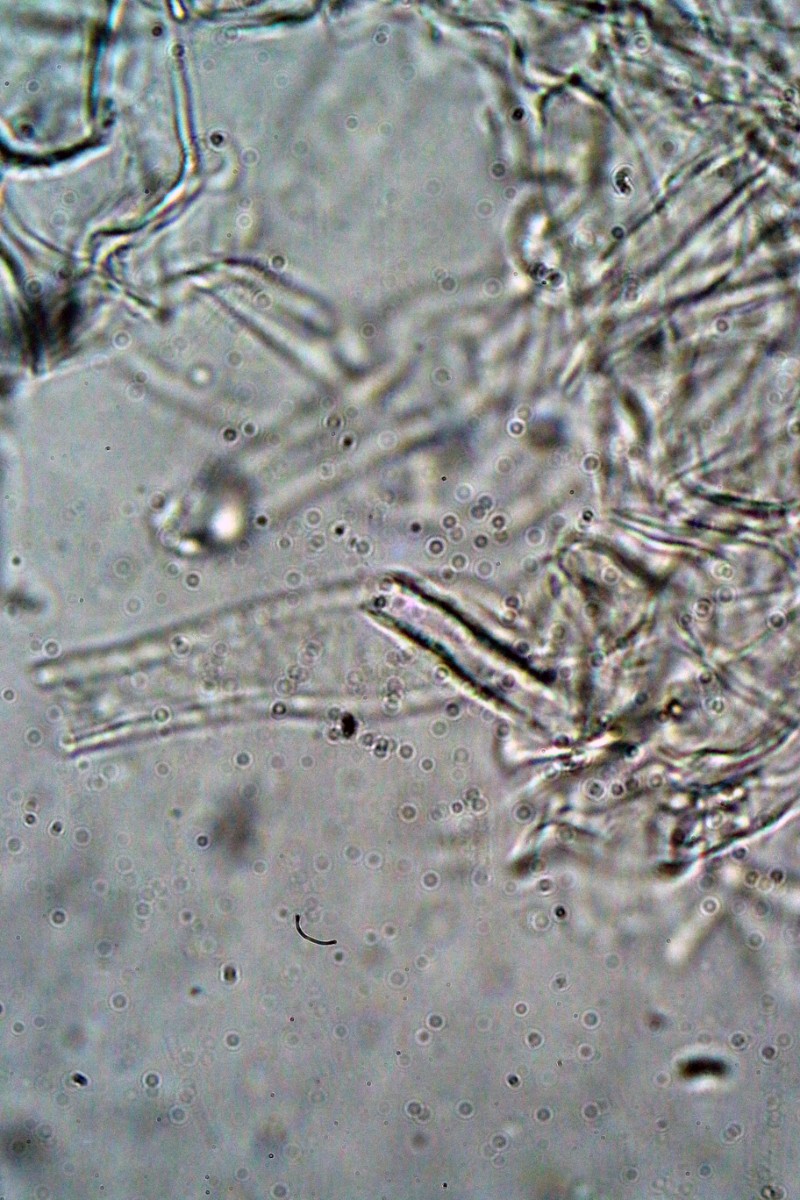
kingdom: Fungi
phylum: Basidiomycota
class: Agaricomycetes
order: Agaricales
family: Entolomataceae
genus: Entoloma
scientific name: Entoloma sericatum
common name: rank rødblad
